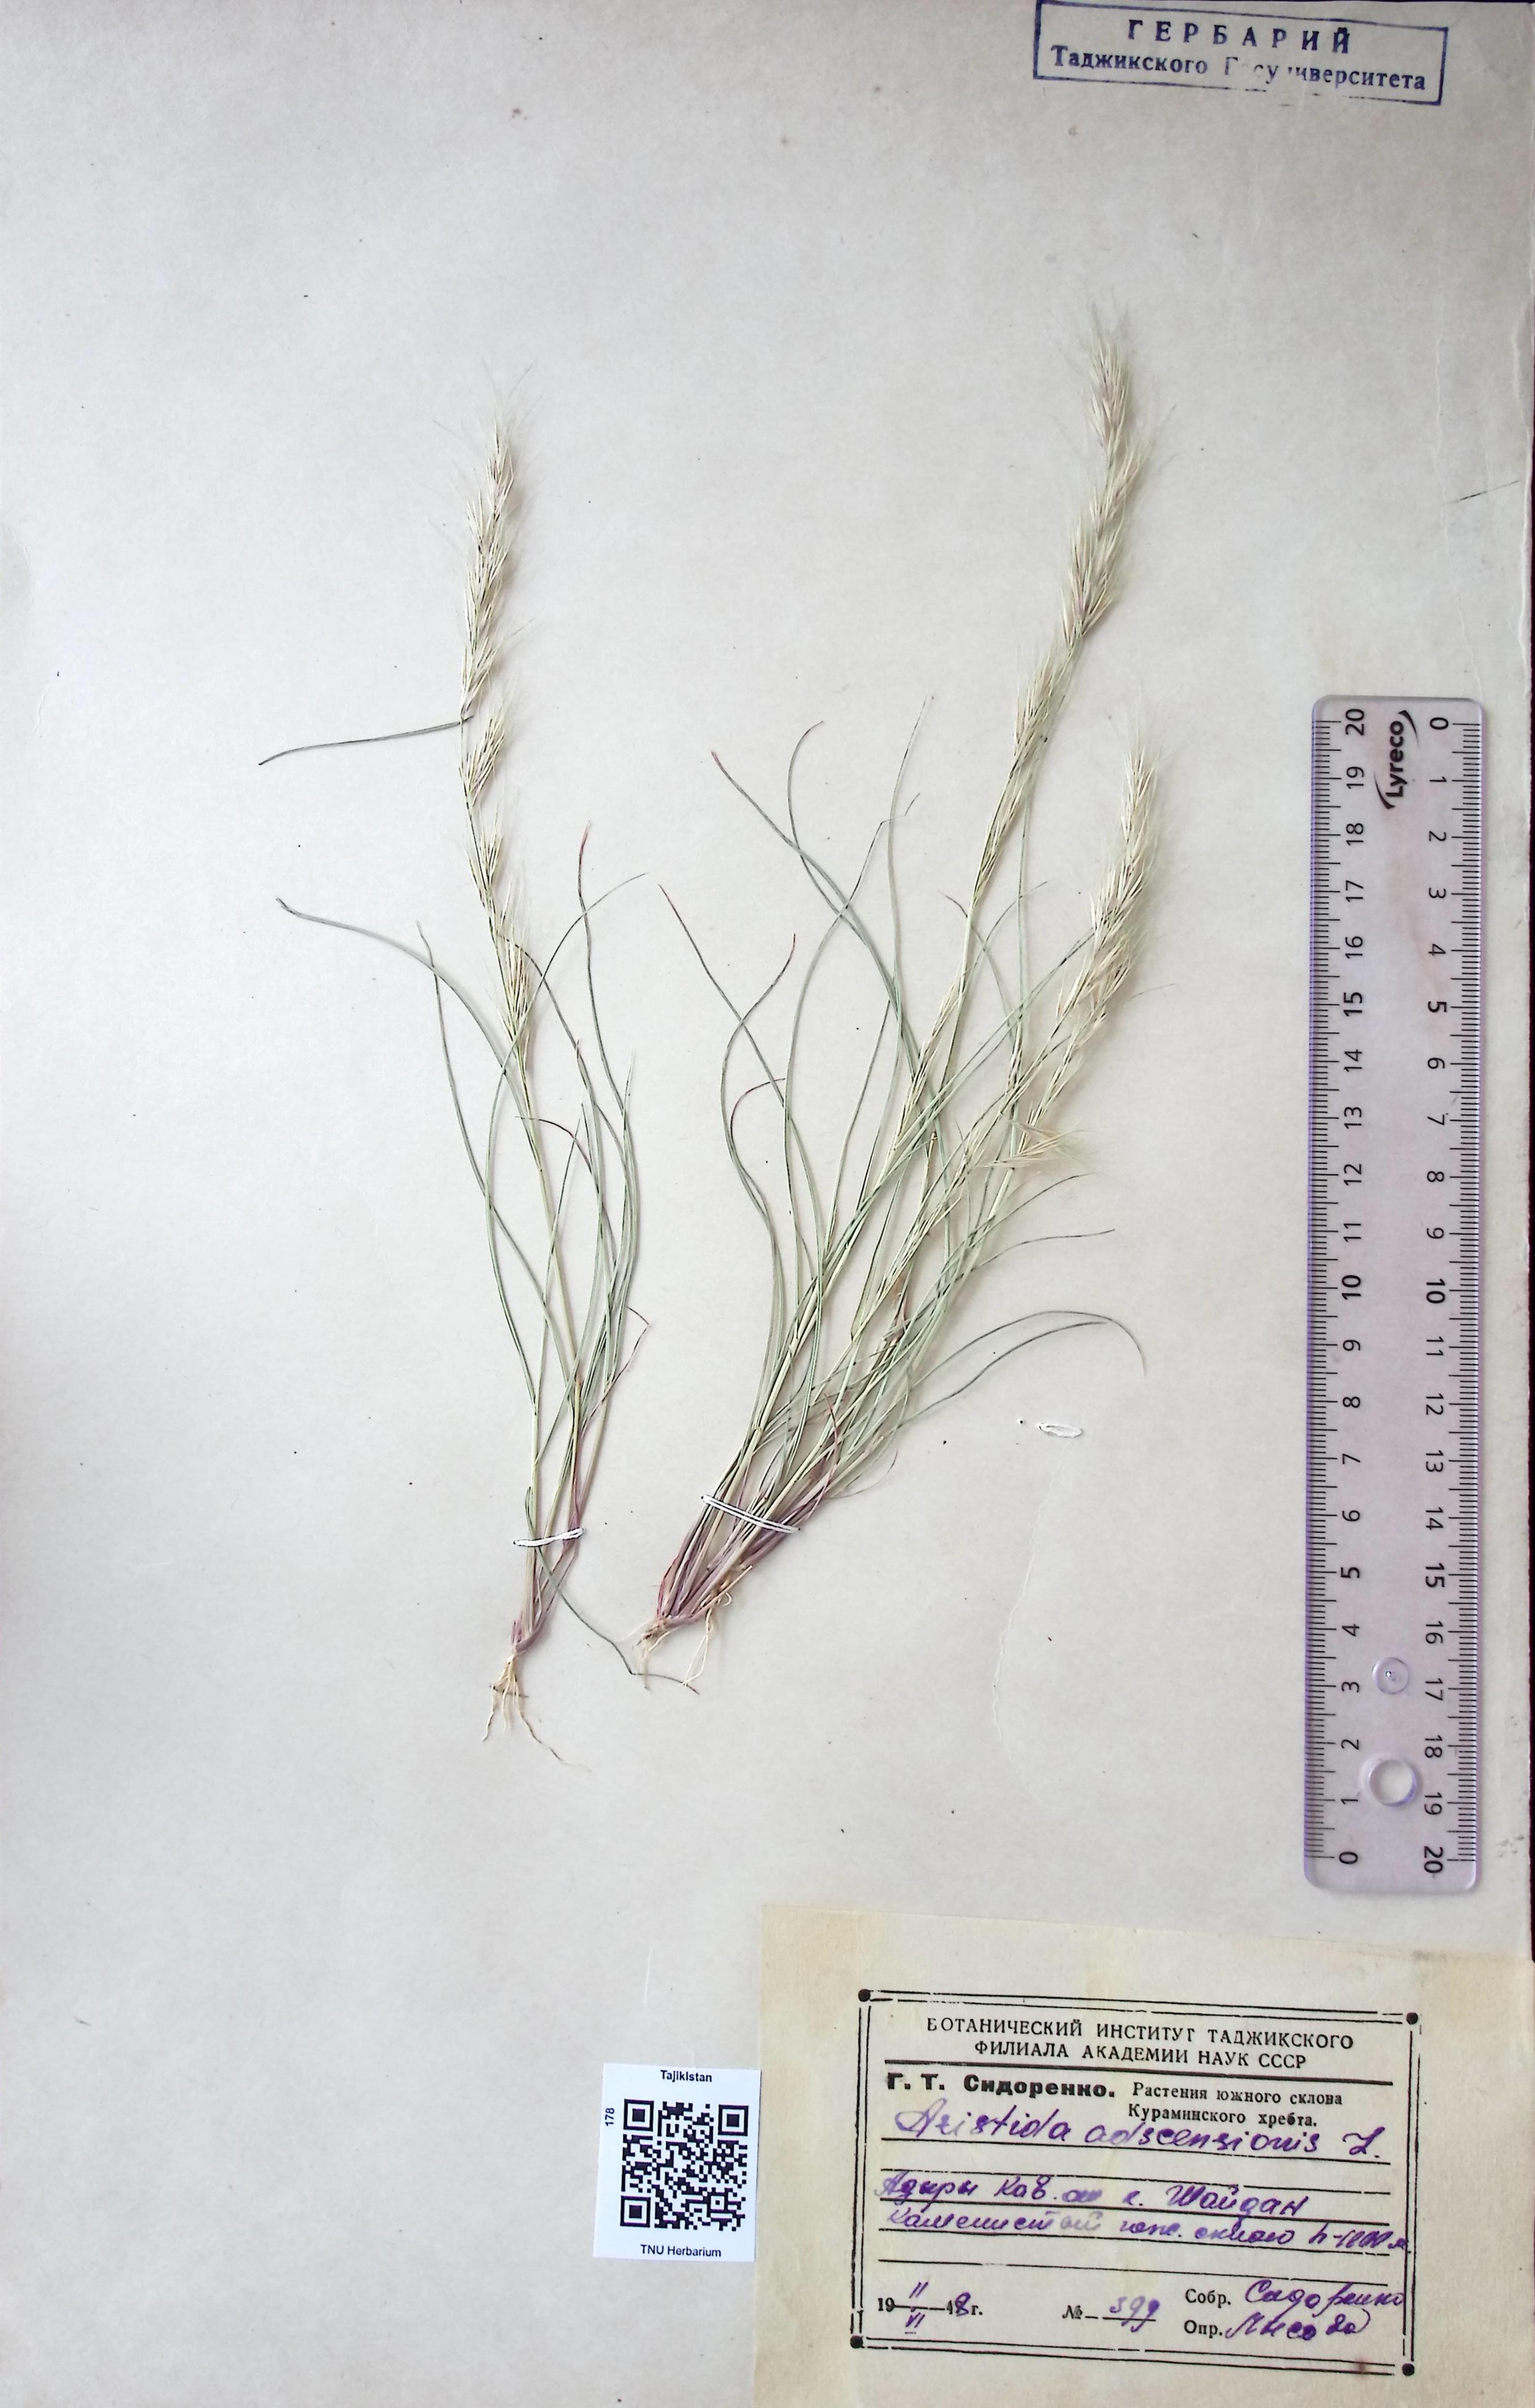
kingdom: Plantae
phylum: Tracheophyta
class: Liliopsida
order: Poales
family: Poaceae
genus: Aristida
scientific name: Aristida
